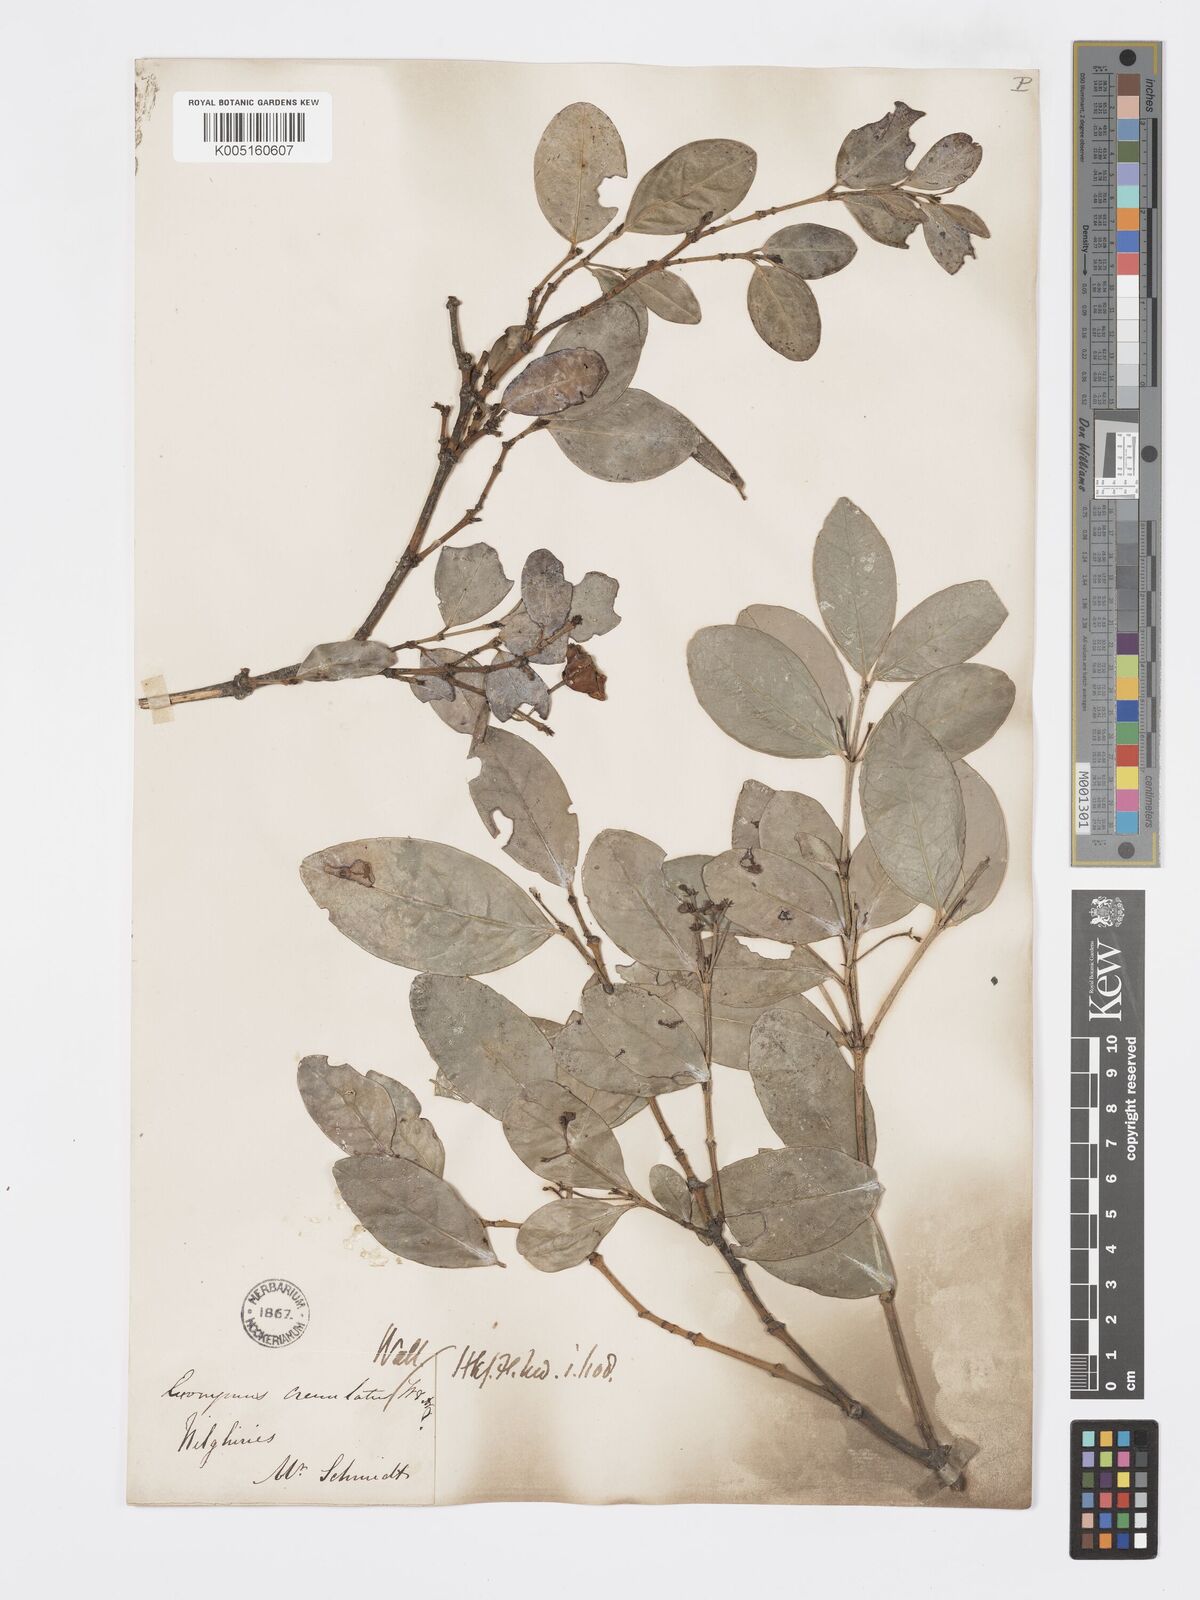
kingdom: Plantae
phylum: Tracheophyta
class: Magnoliopsida
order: Celastrales
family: Celastraceae
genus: Euonymus
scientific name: Euonymus crenulatus
